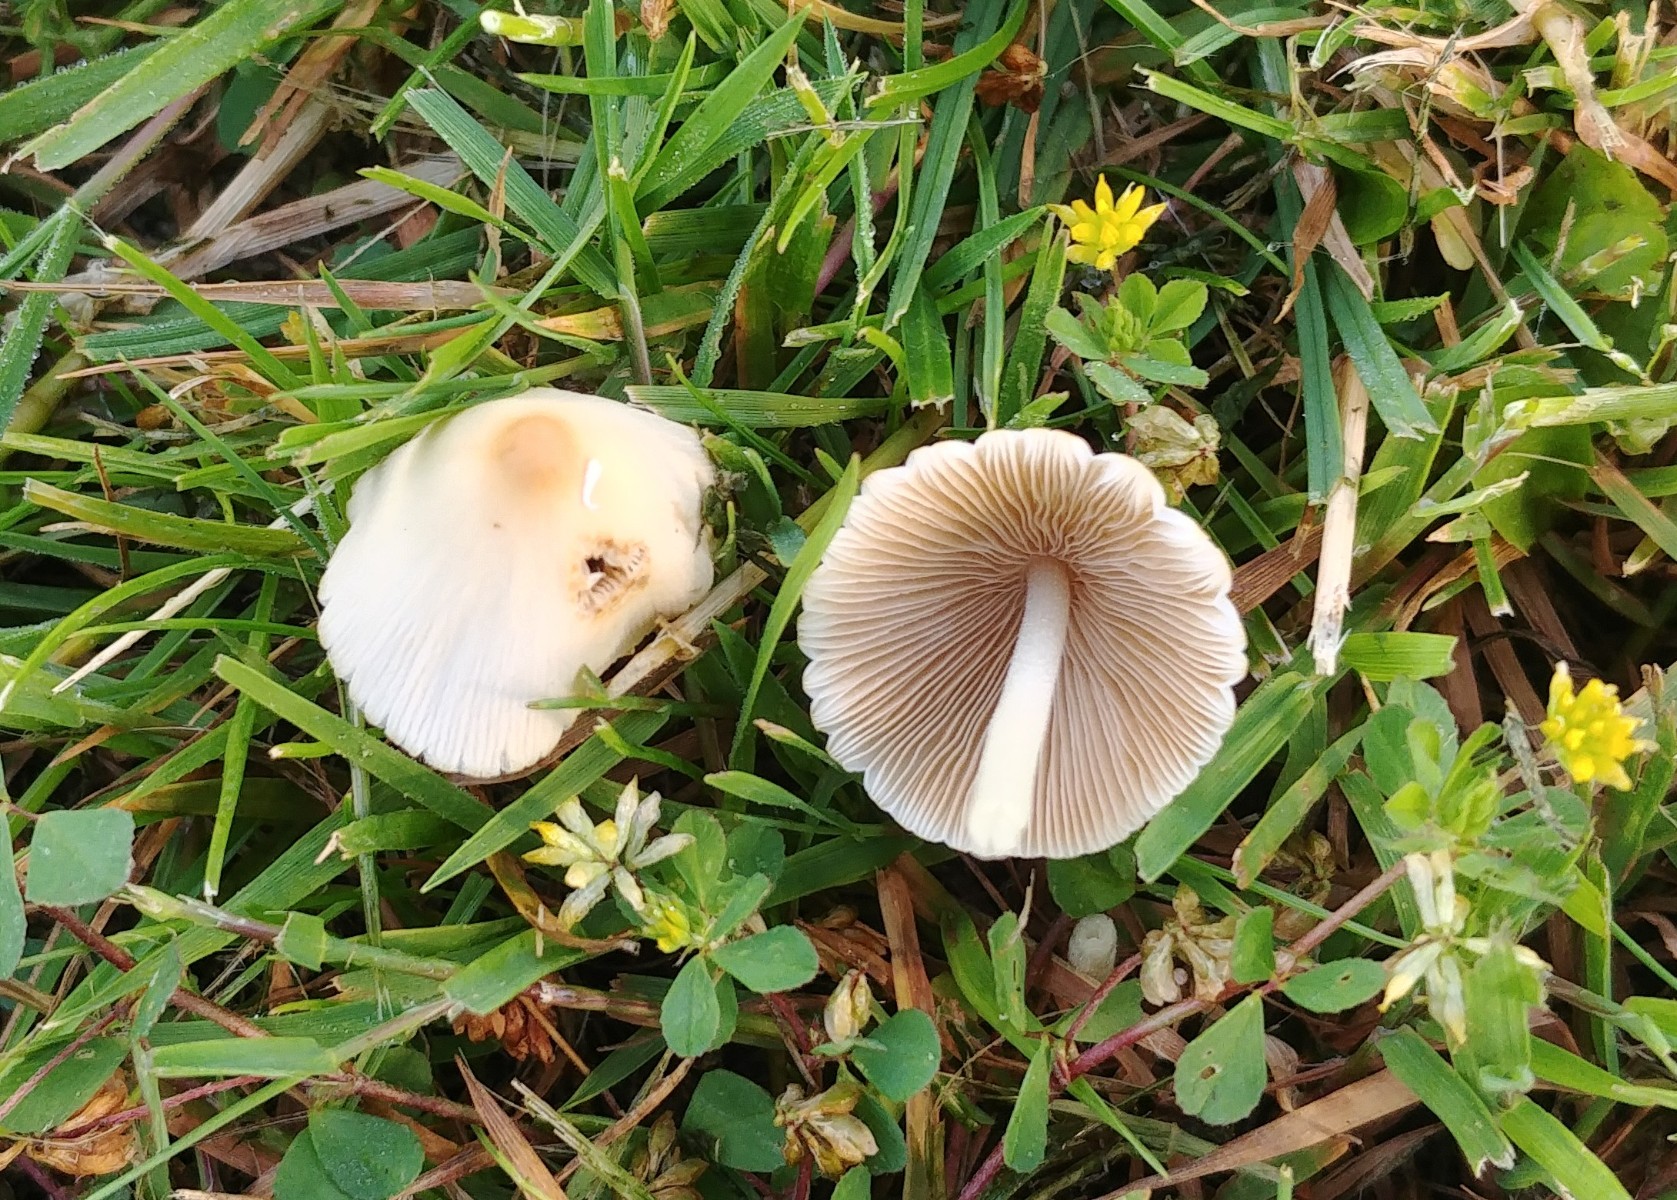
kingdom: Fungi
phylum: Basidiomycota
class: Agaricomycetes
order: Agaricales
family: Bolbitiaceae
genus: Conocybe
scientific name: Conocybe apala
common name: mælkehvid keglehat
